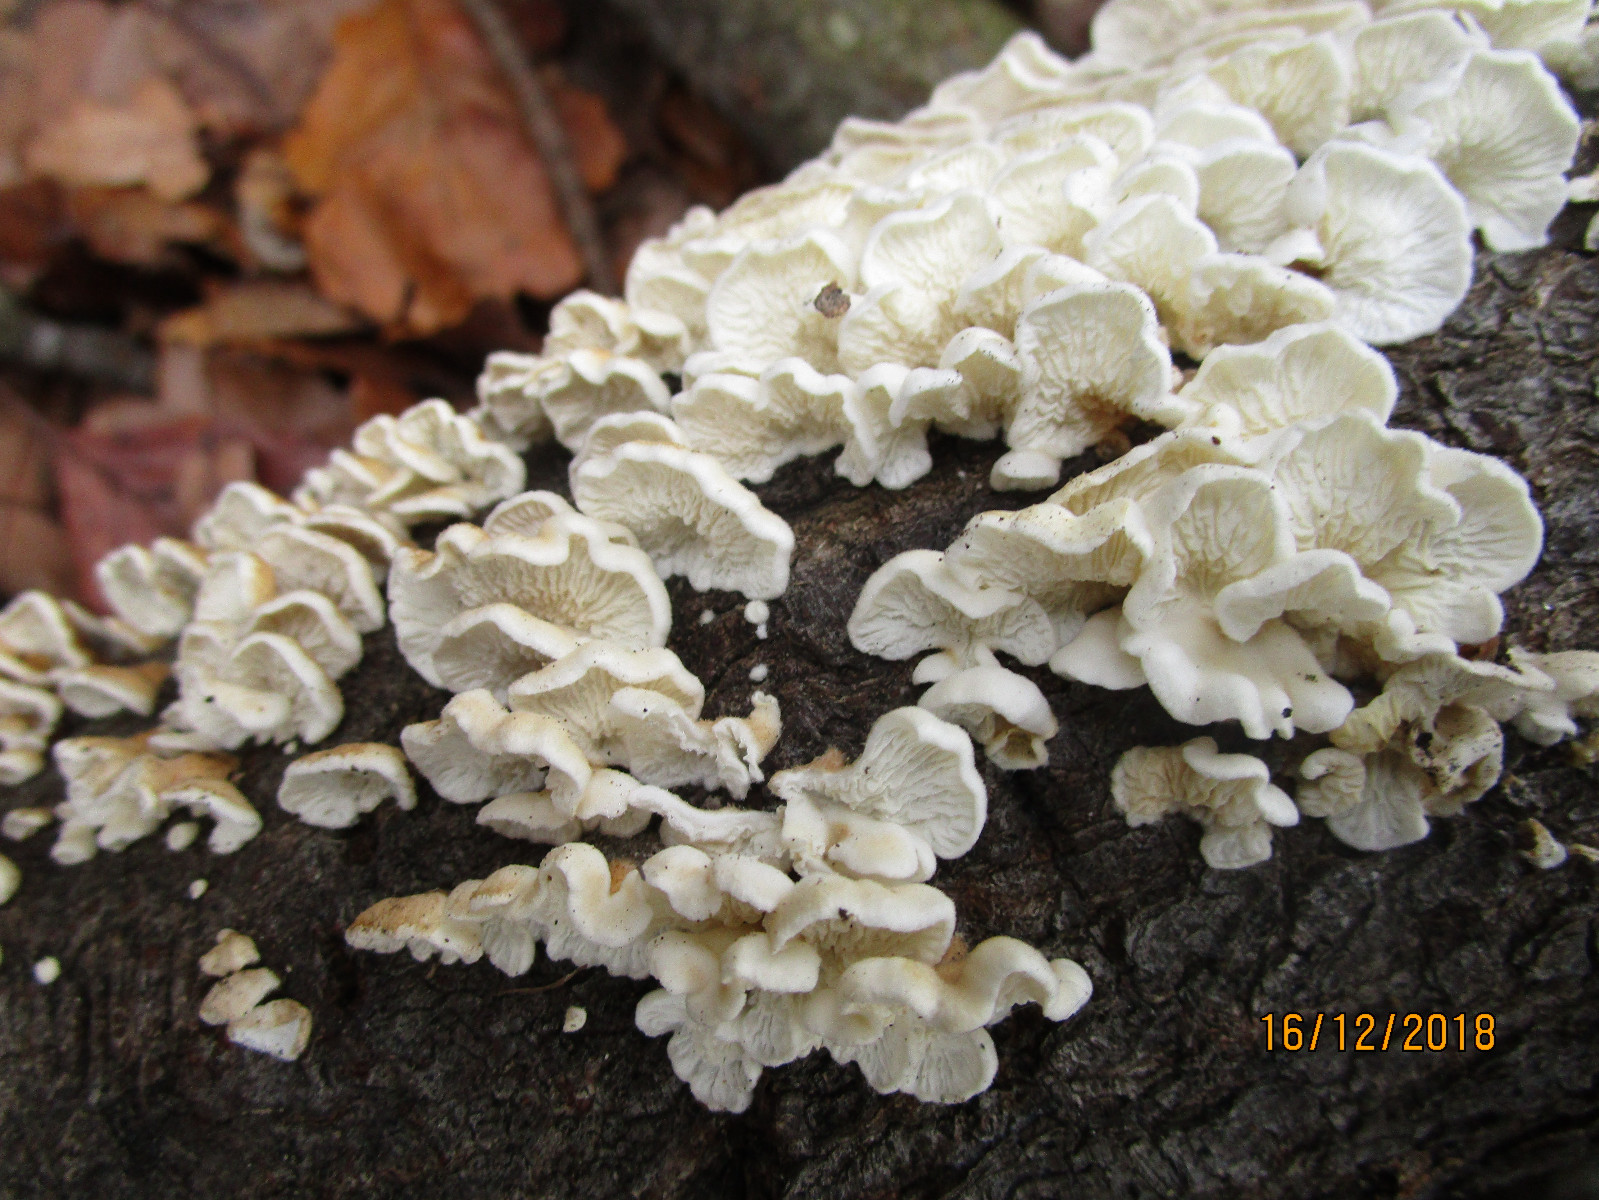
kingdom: Fungi
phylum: Basidiomycota
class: Agaricomycetes
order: Amylocorticiales
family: Amylocorticiaceae
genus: Plicaturopsis
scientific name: Plicaturopsis crispa
